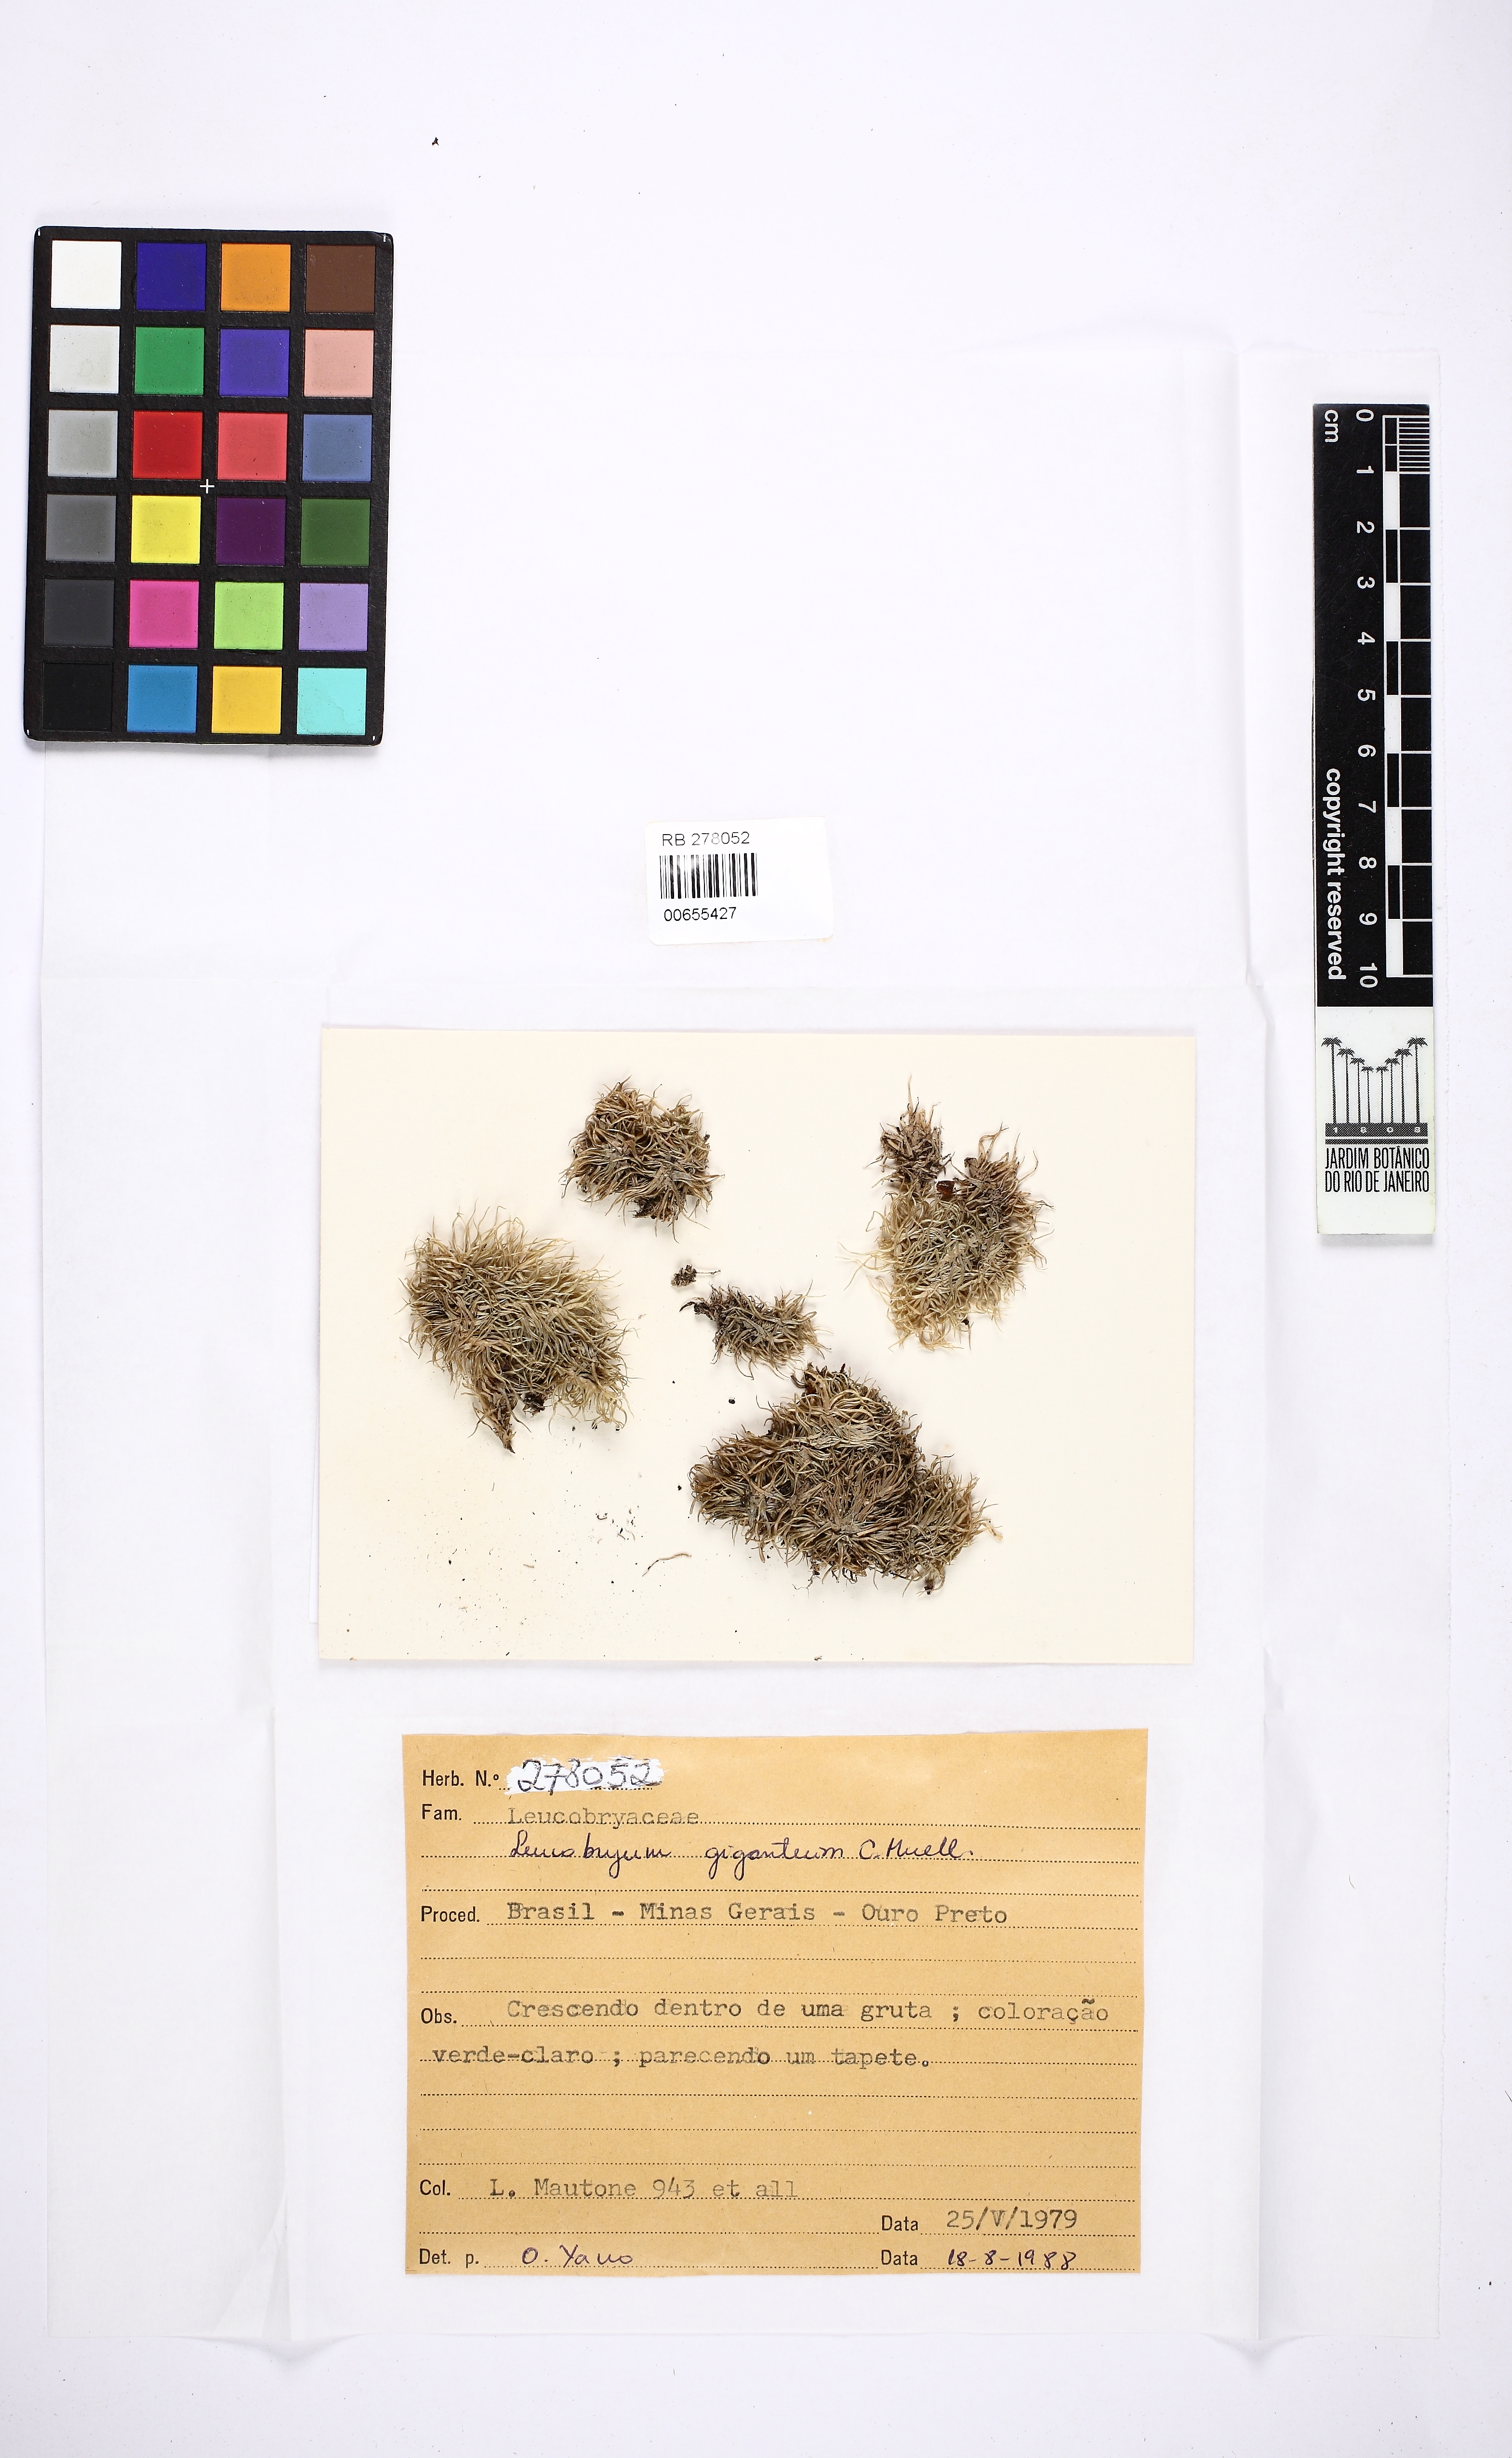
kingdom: Plantae
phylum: Bryophyta
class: Bryopsida
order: Dicranales
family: Leucobryaceae
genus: Leucobryum
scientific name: Leucobryum giganteum
